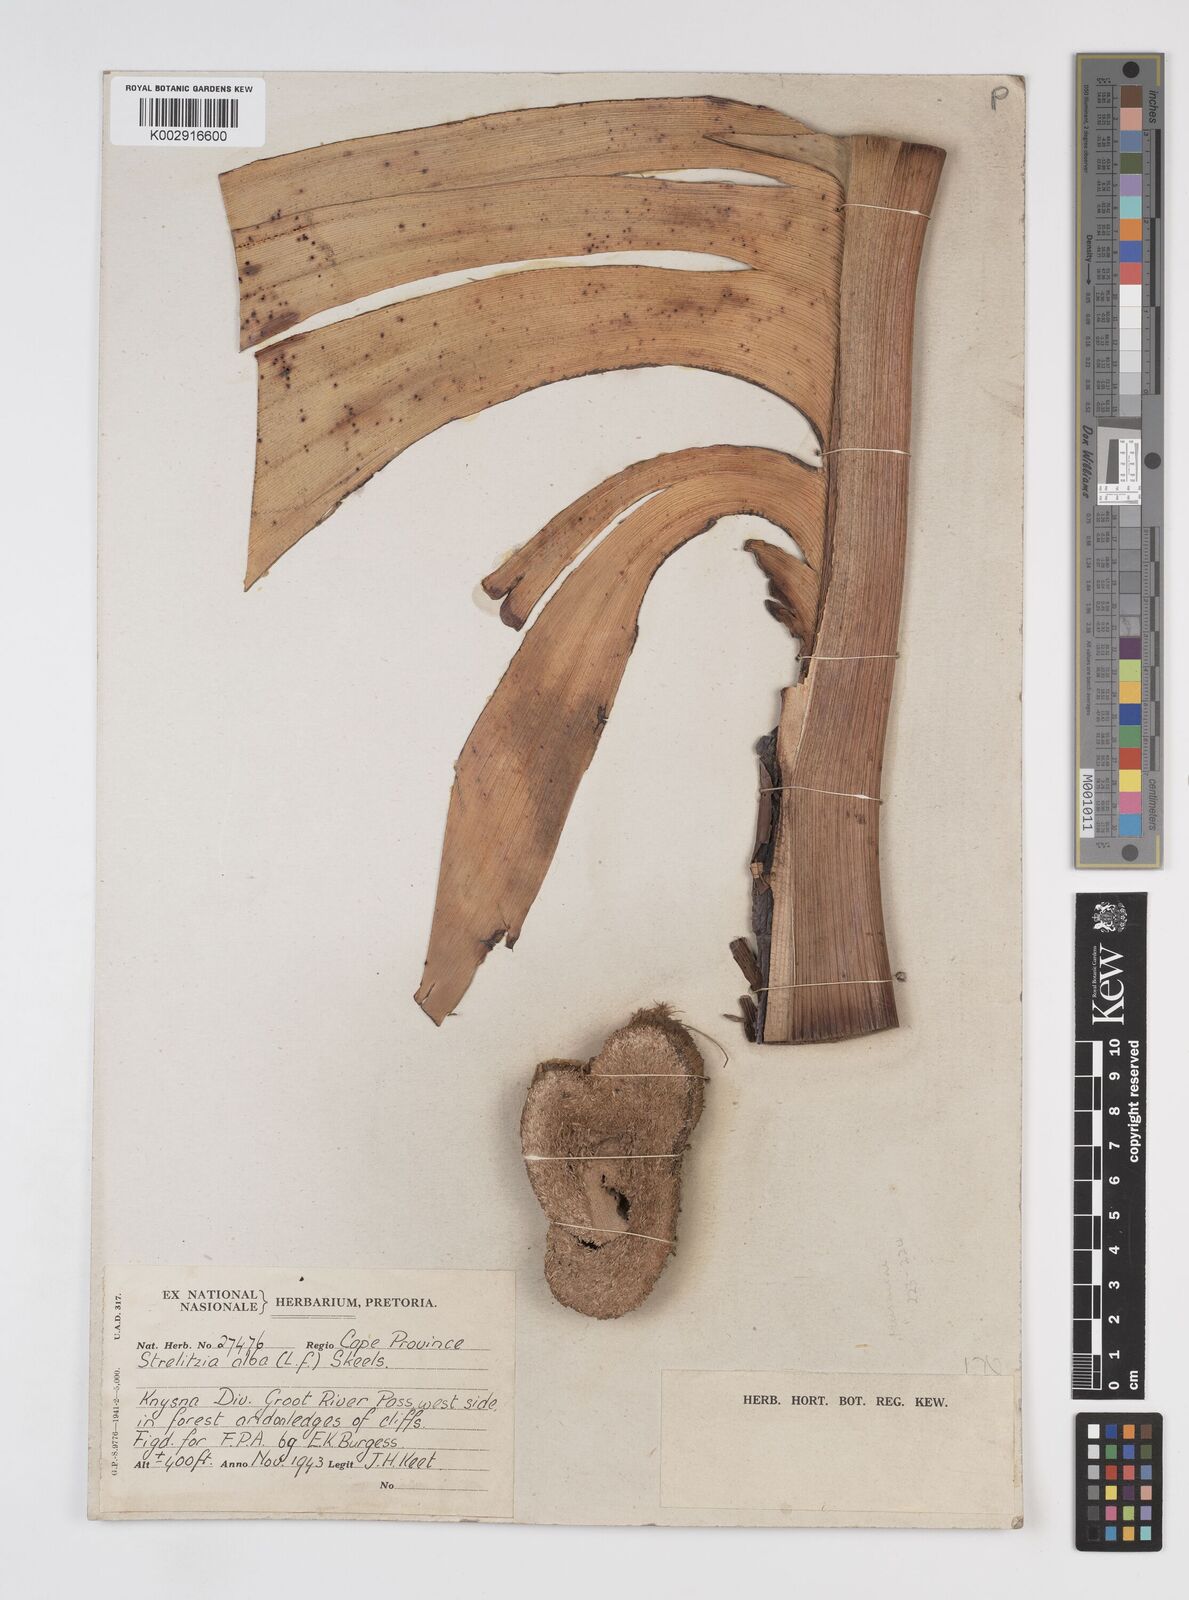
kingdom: Plantae
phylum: Tracheophyta
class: Liliopsida
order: Zingiberales
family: Strelitziaceae
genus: Strelitzia
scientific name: Strelitzia alba
